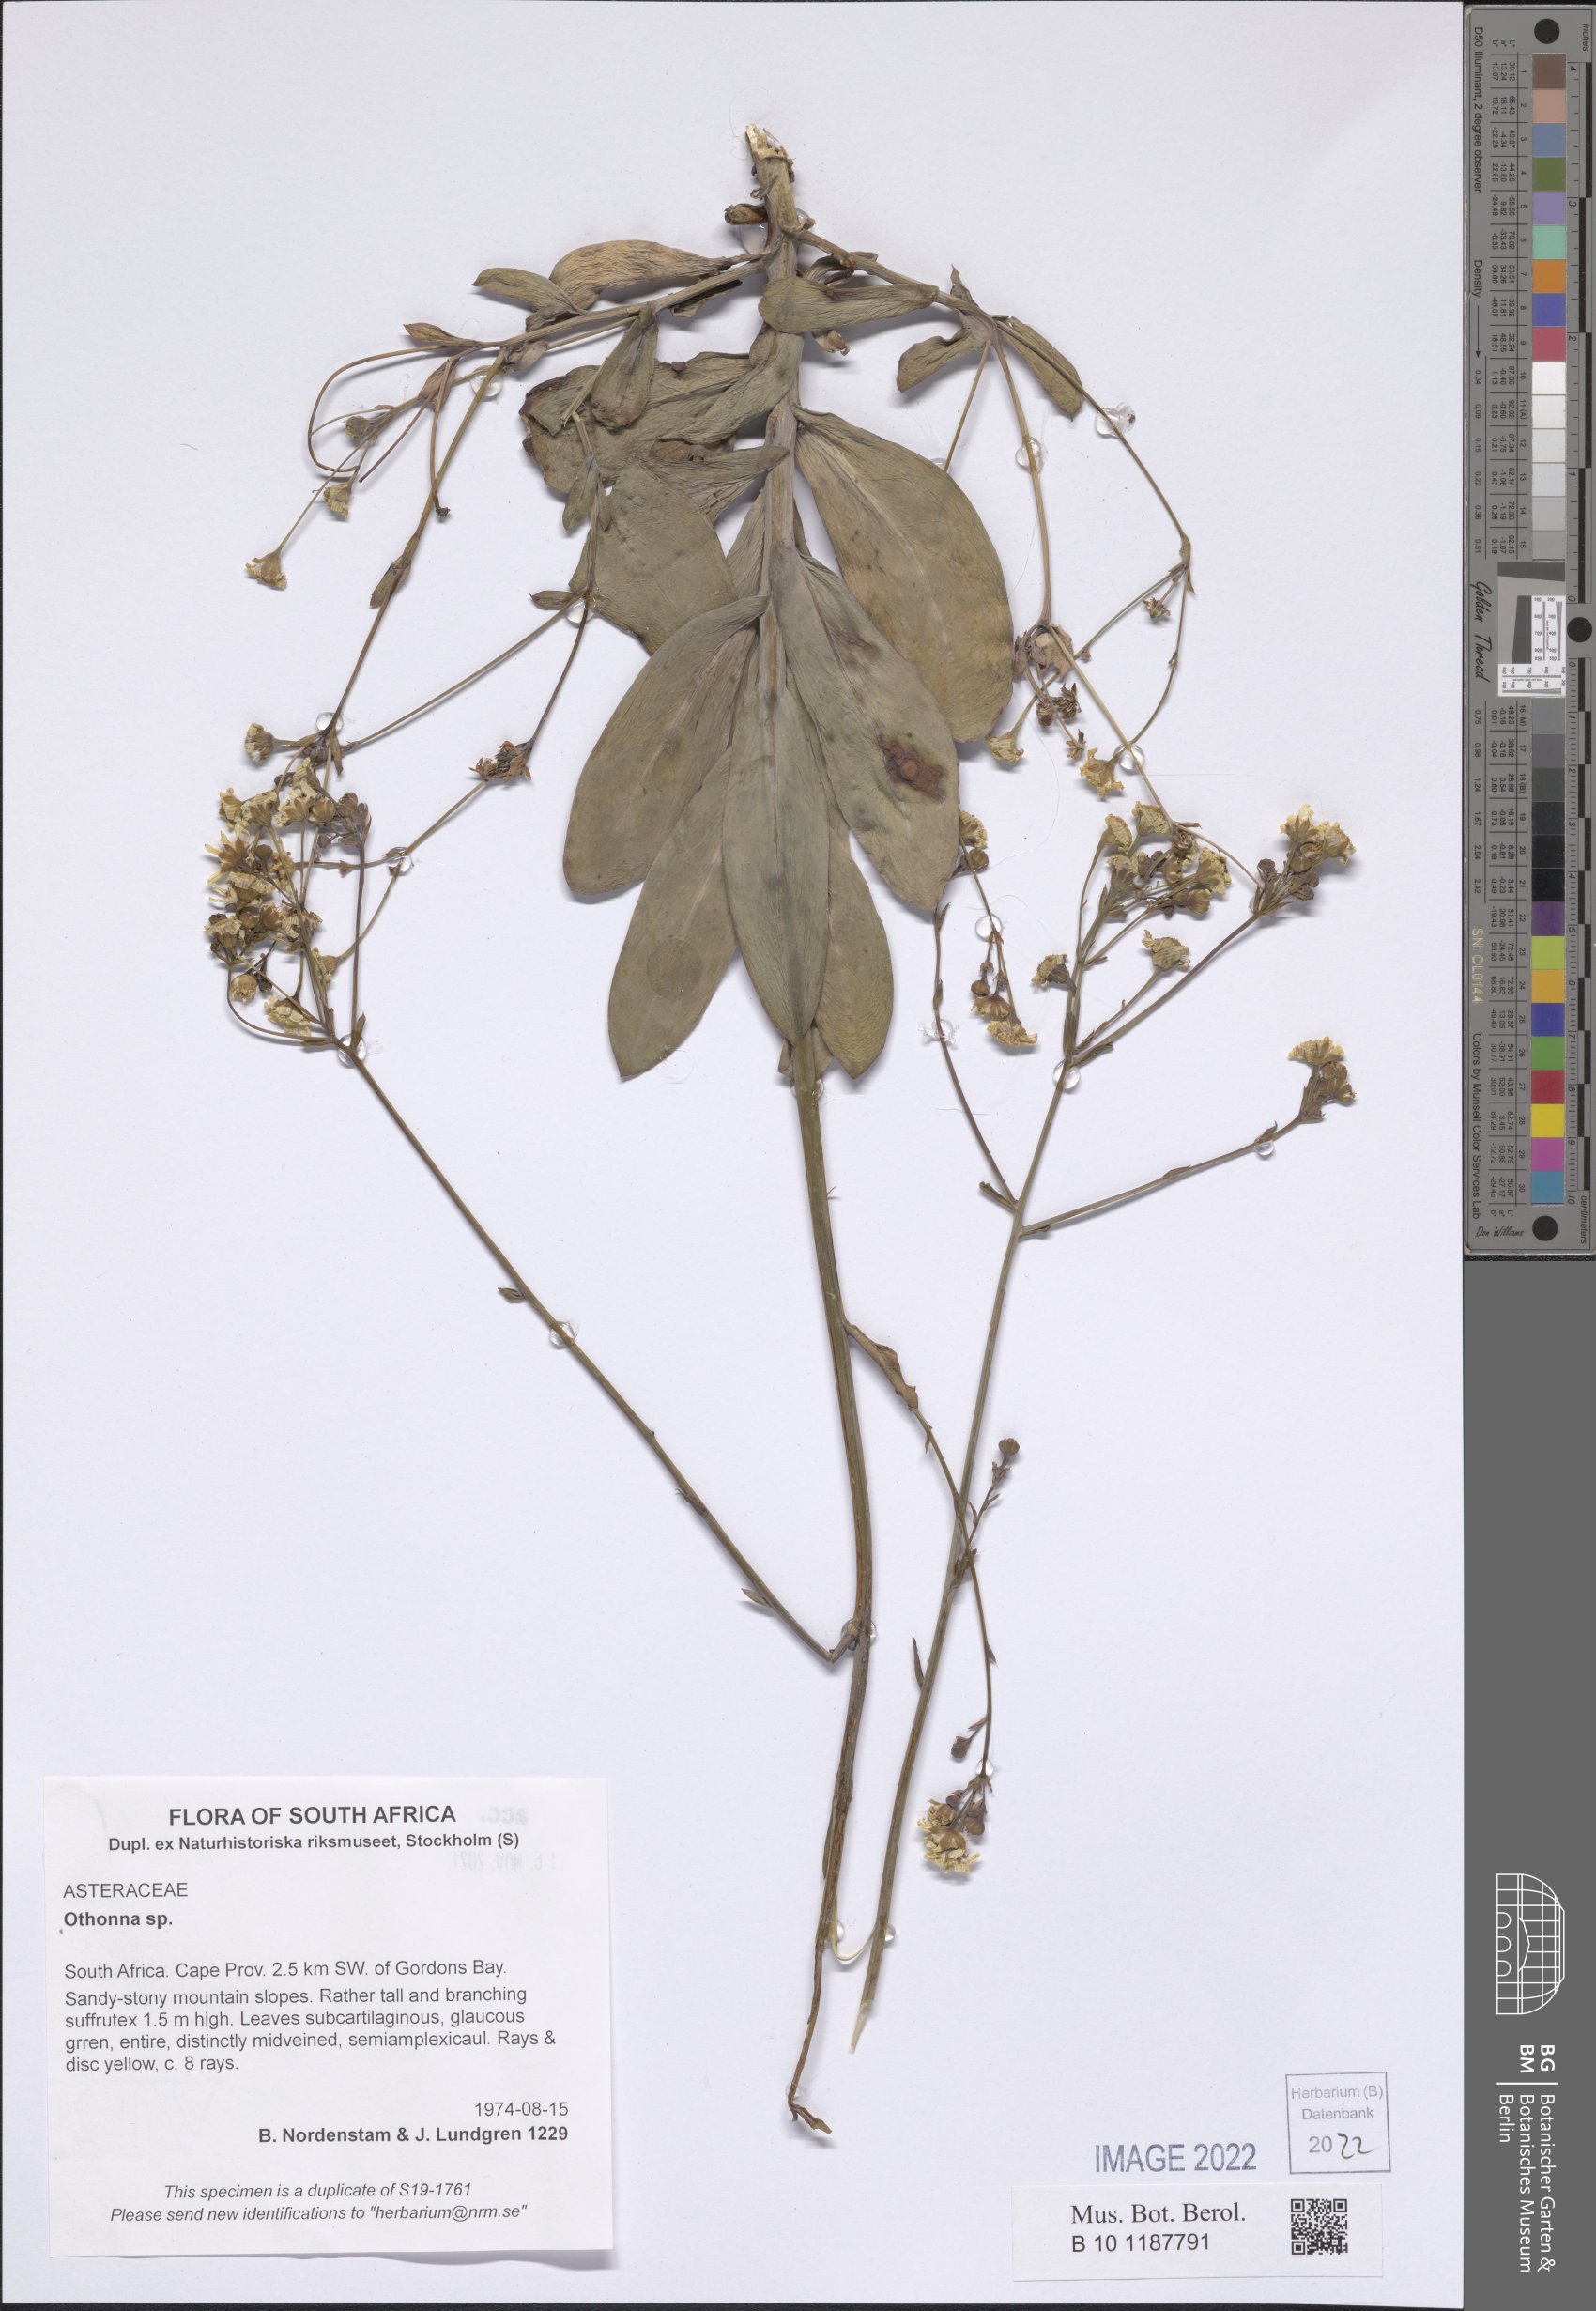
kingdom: Plantae
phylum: Tracheophyta
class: Magnoliopsida
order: Asterales
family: Asteraceae
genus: Othonna
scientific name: Othonna
